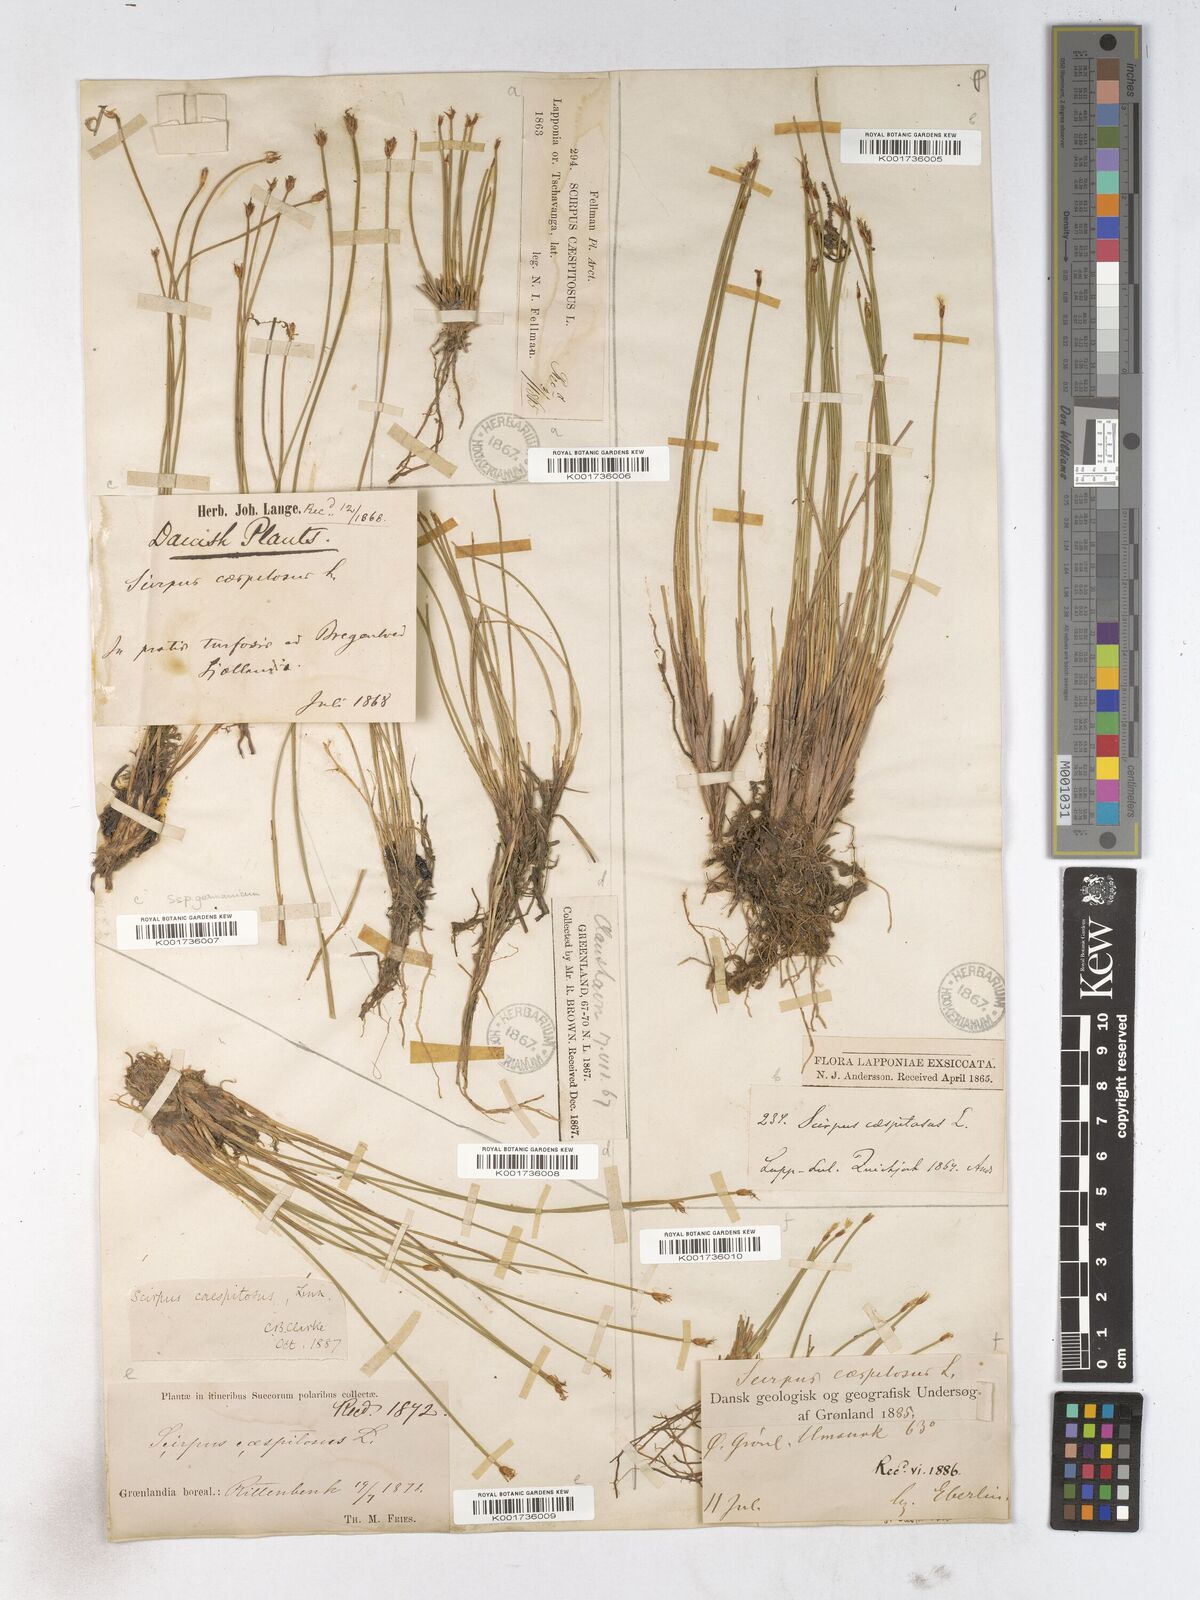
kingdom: Plantae
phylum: Tracheophyta
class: Liliopsida
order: Poales
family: Cyperaceae
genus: Trichophorum
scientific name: Trichophorum cespitosum
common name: Cespitose bulrush
